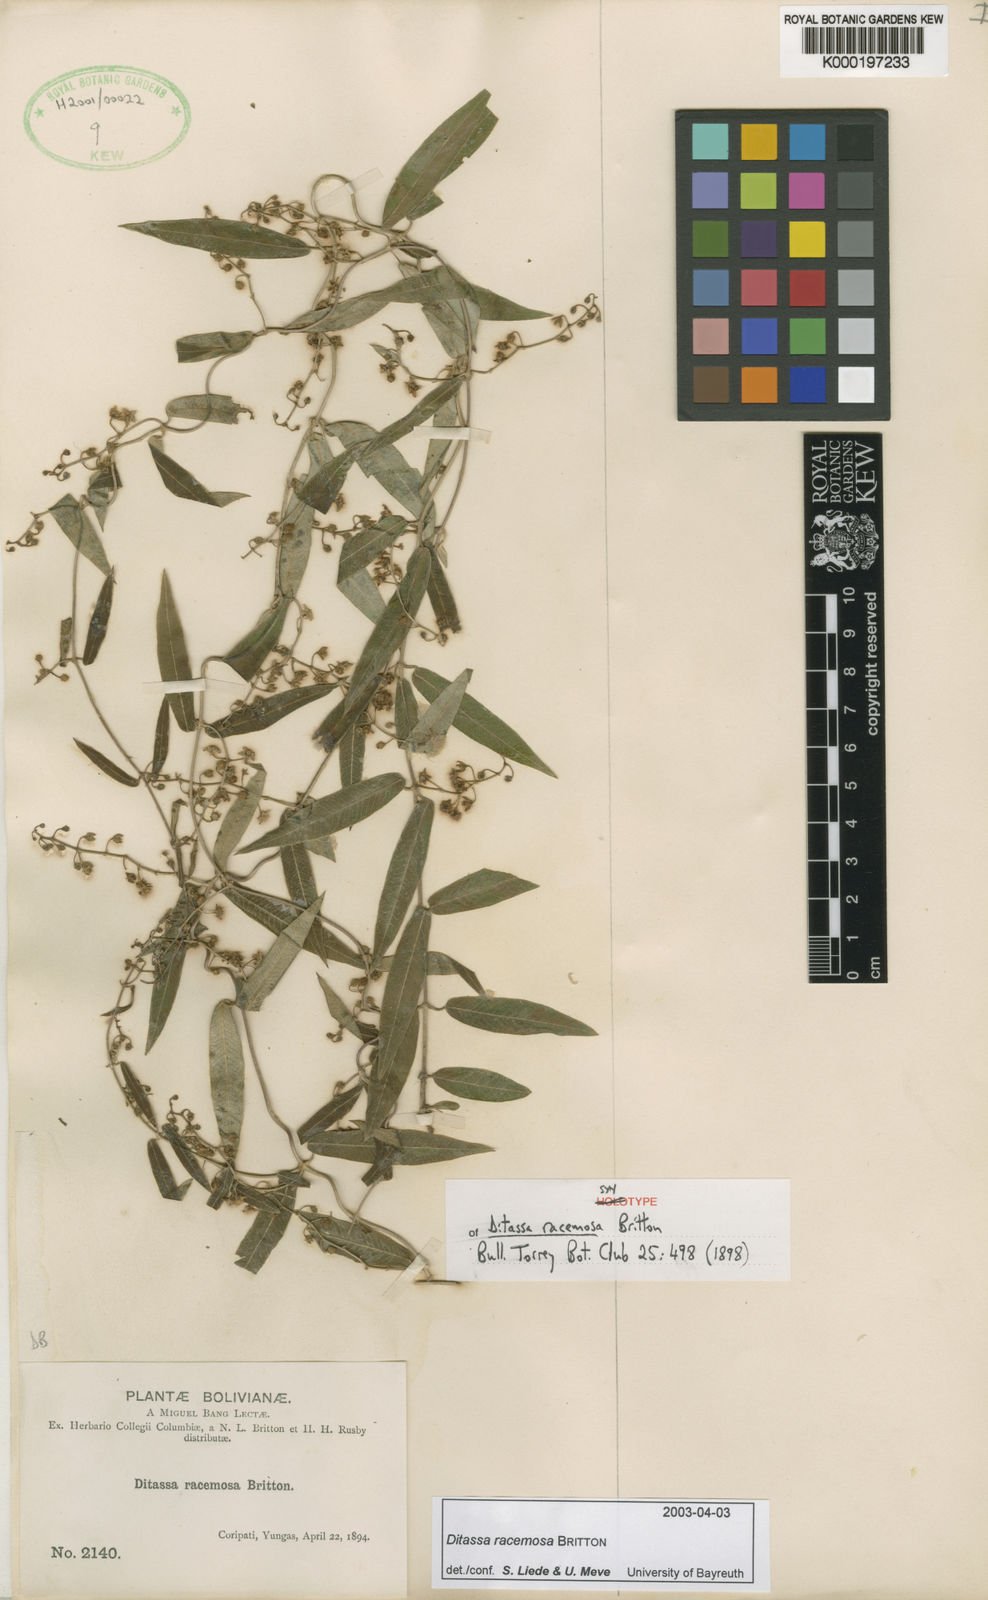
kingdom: Plantae
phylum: Tracheophyta
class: Magnoliopsida
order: Gentianales
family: Apocynaceae
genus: Ditassa
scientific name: Ditassa racemosa
